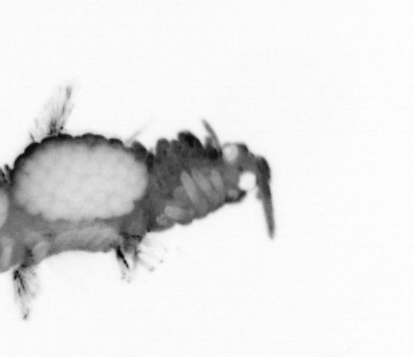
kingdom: Animalia
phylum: Annelida
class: Polychaeta
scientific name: Polychaeta
